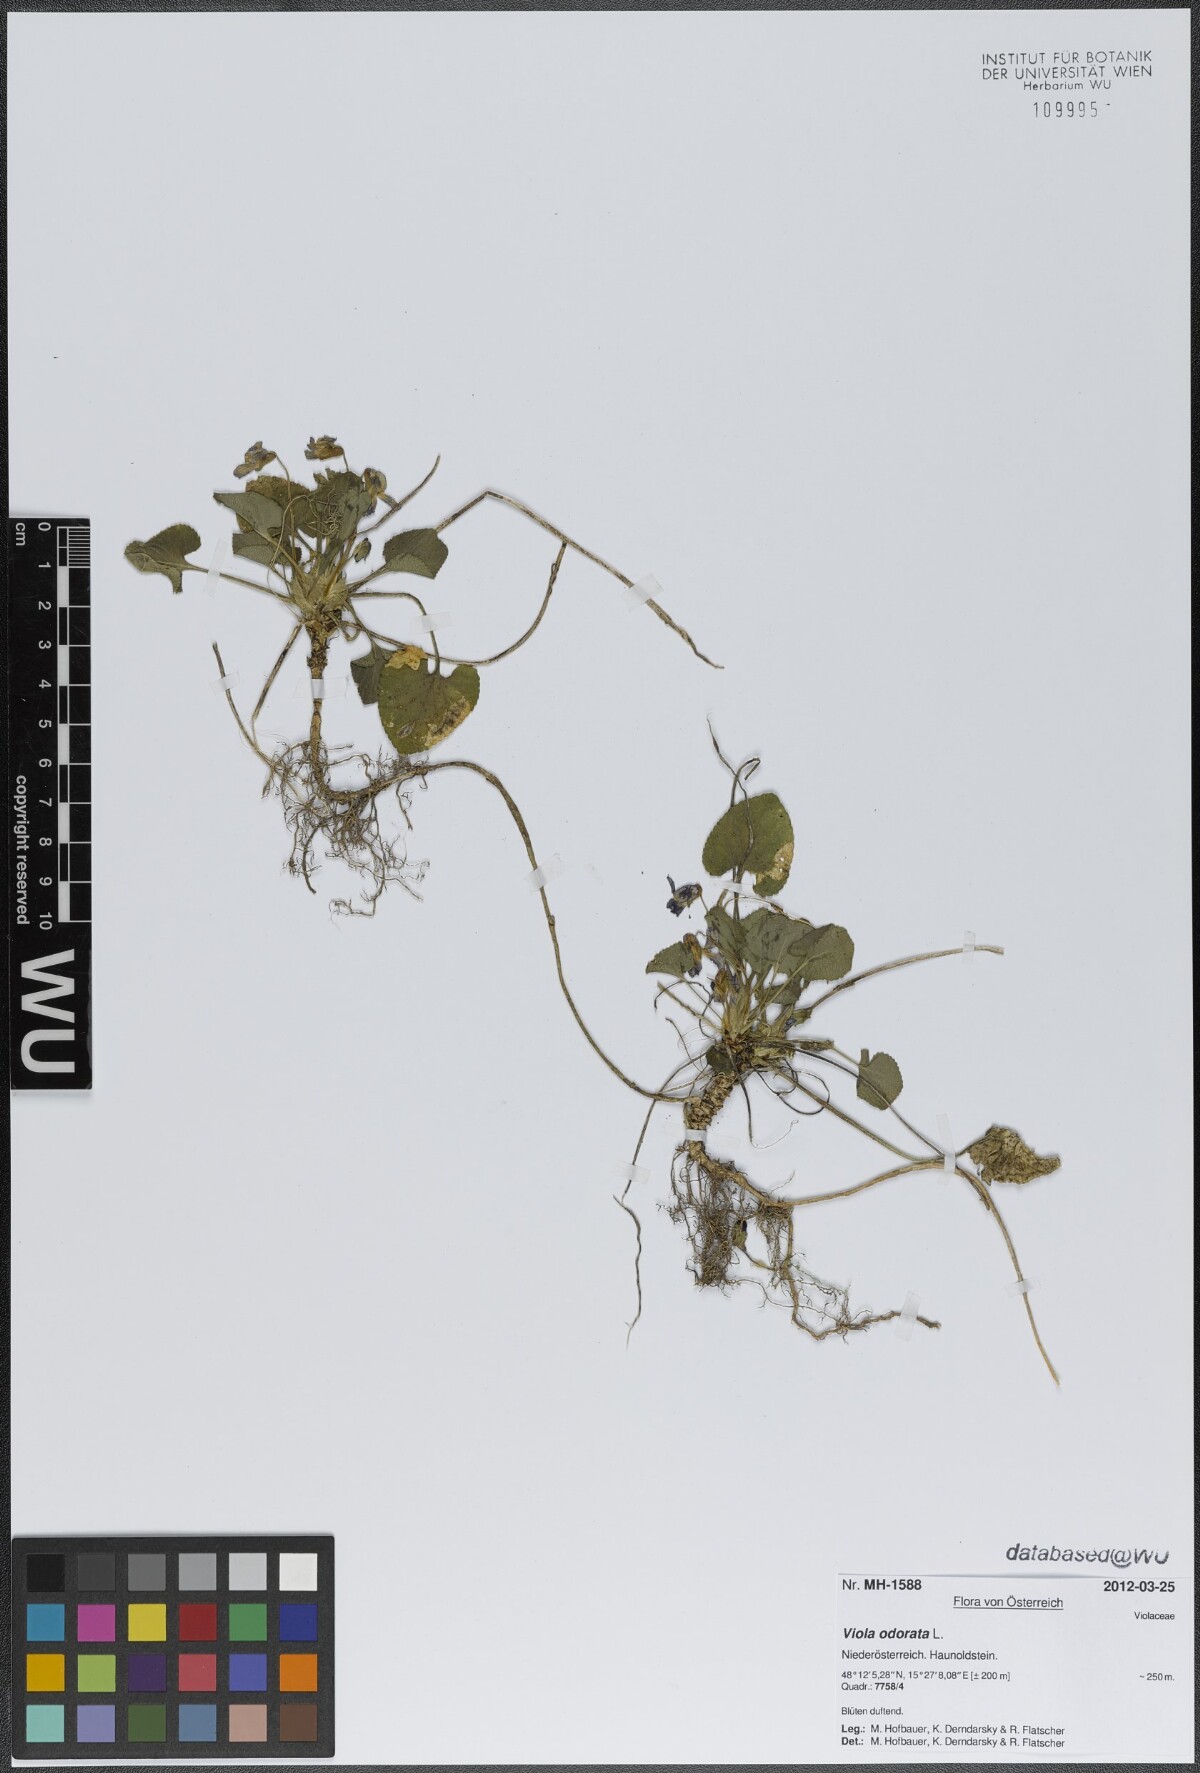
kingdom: Plantae
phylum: Tracheophyta
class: Magnoliopsida
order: Malpighiales
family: Violaceae
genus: Viola
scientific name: Viola odorata
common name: Sweet violet
